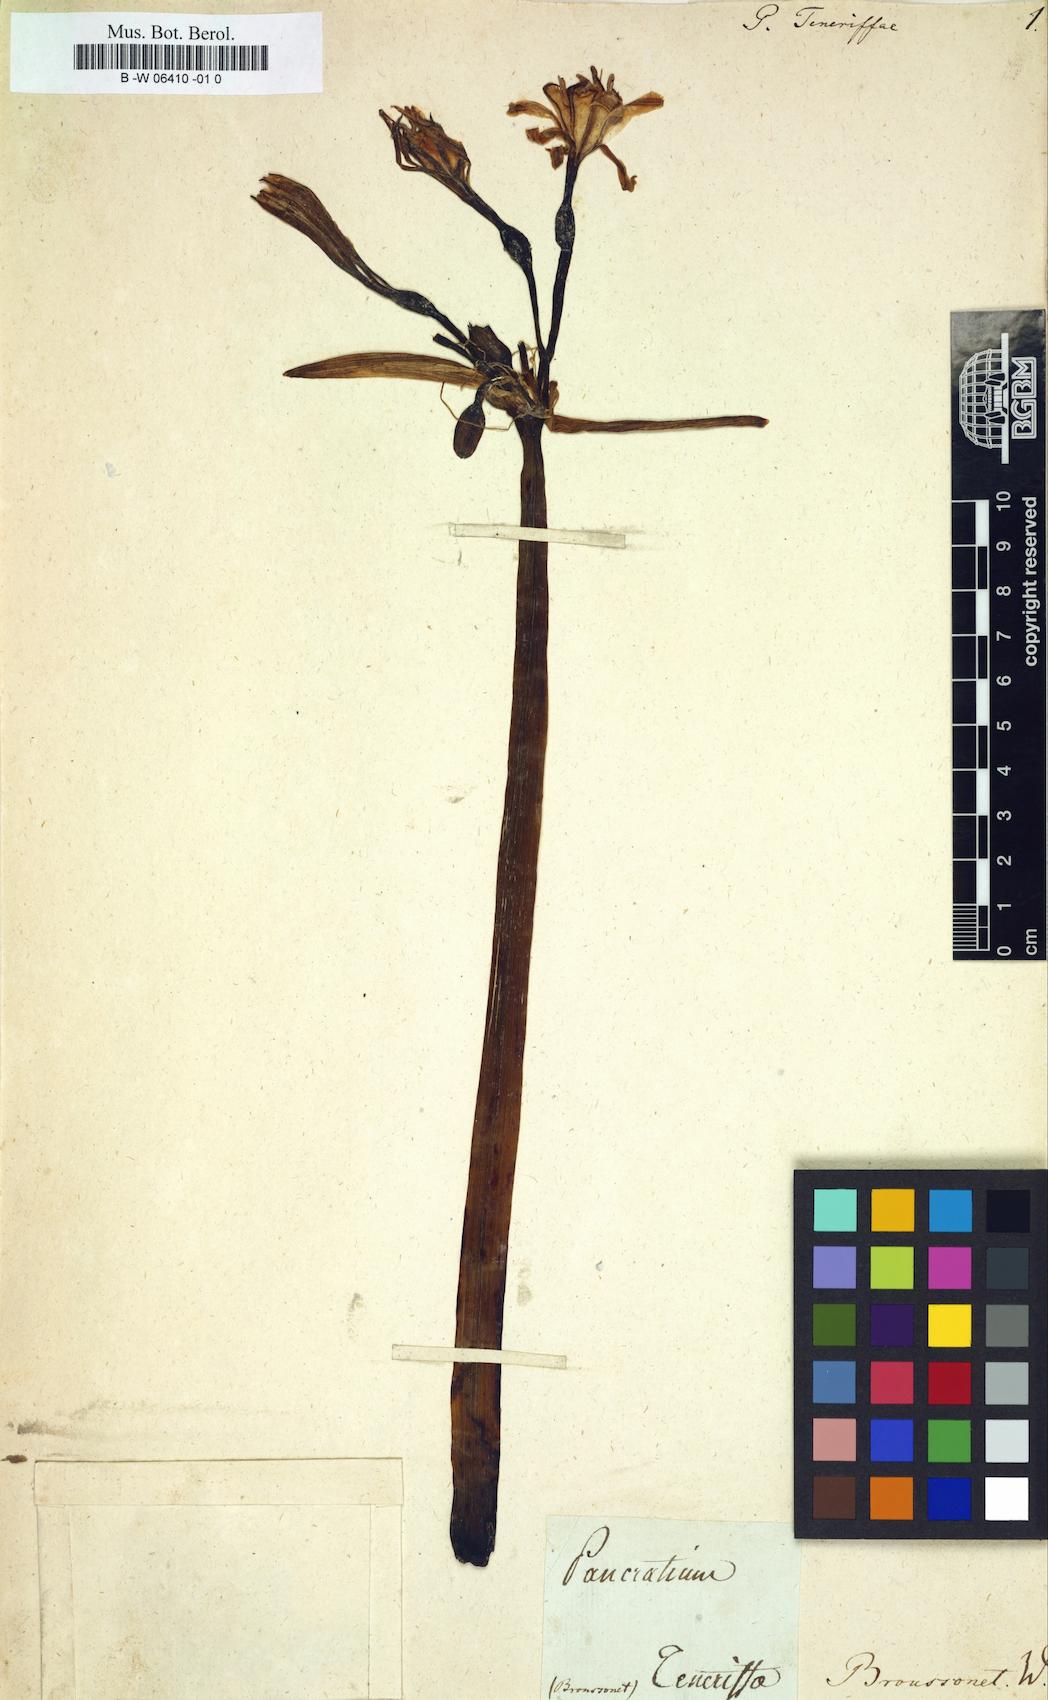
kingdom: Plantae
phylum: Tracheophyta
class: Liliopsida
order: Asparagales
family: Amaryllidaceae
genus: Pancratium
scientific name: Pancratium teneriffae
